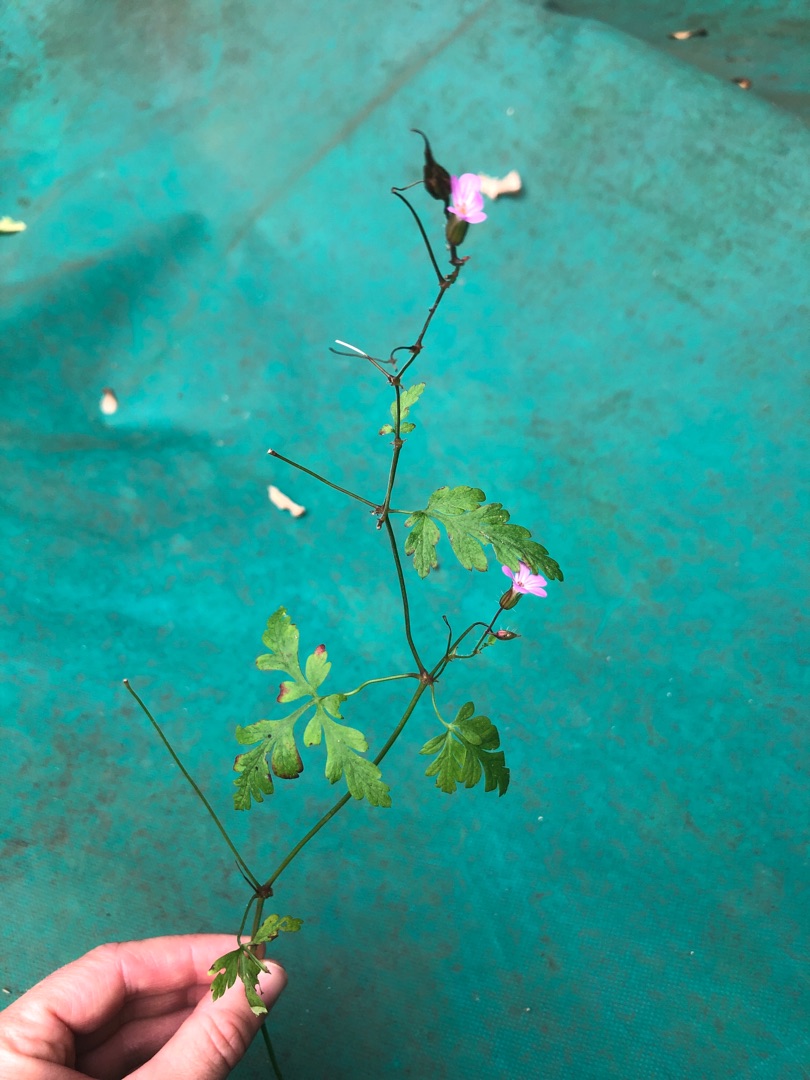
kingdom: Plantae
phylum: Tracheophyta
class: Magnoliopsida
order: Geraniales
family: Geraniaceae
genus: Geranium
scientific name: Geranium robertianum
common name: Stinkende storkenæb
